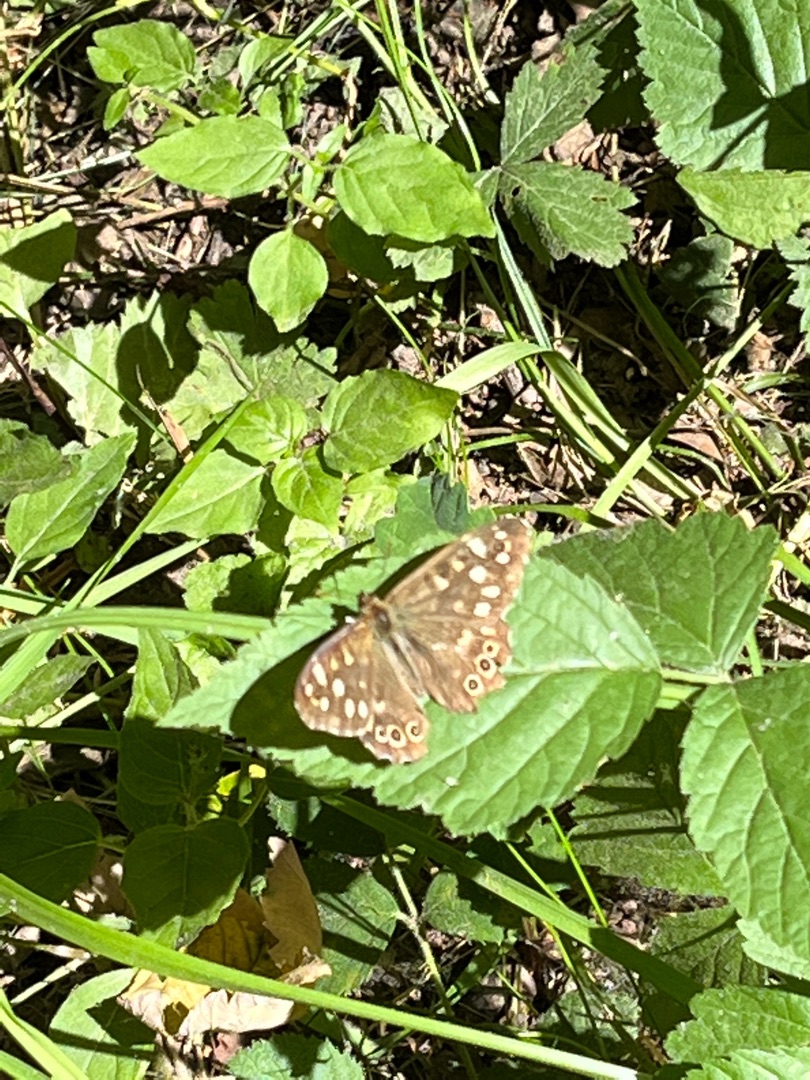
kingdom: Animalia
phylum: Arthropoda
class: Insecta
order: Lepidoptera
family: Nymphalidae
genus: Pararge
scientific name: Pararge aegeria
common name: Skovrandøje
